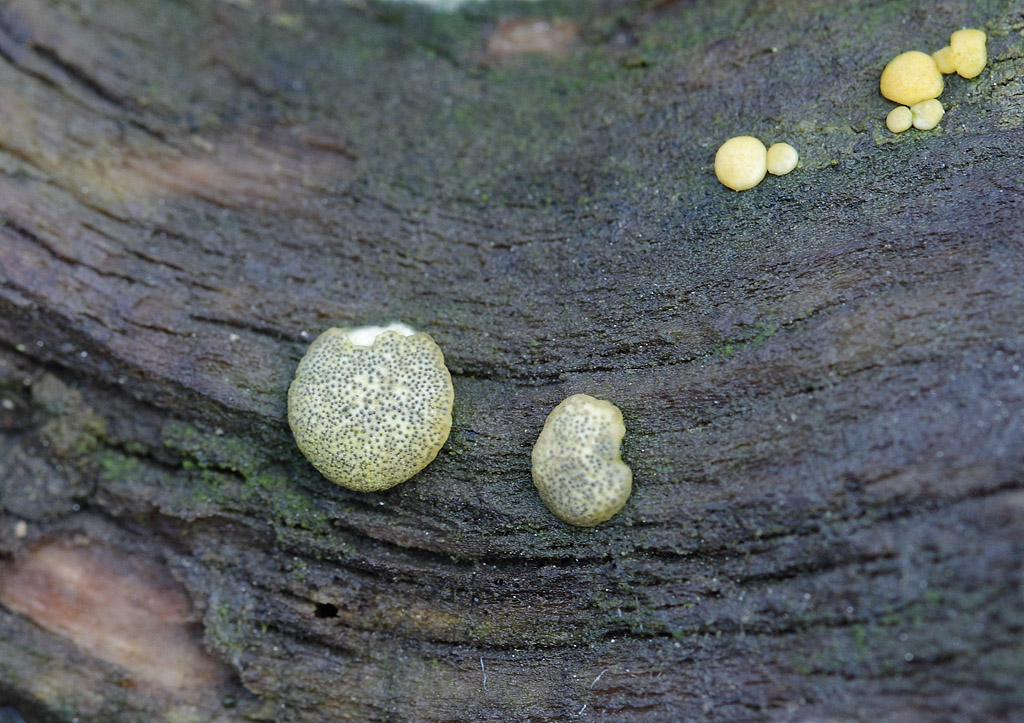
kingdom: Fungi
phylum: Ascomycota
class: Sordariomycetes
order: Hypocreales
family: Hypocreaceae
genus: Trichoderma
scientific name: Trichoderma strictipile
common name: grønprikket kødkerne
